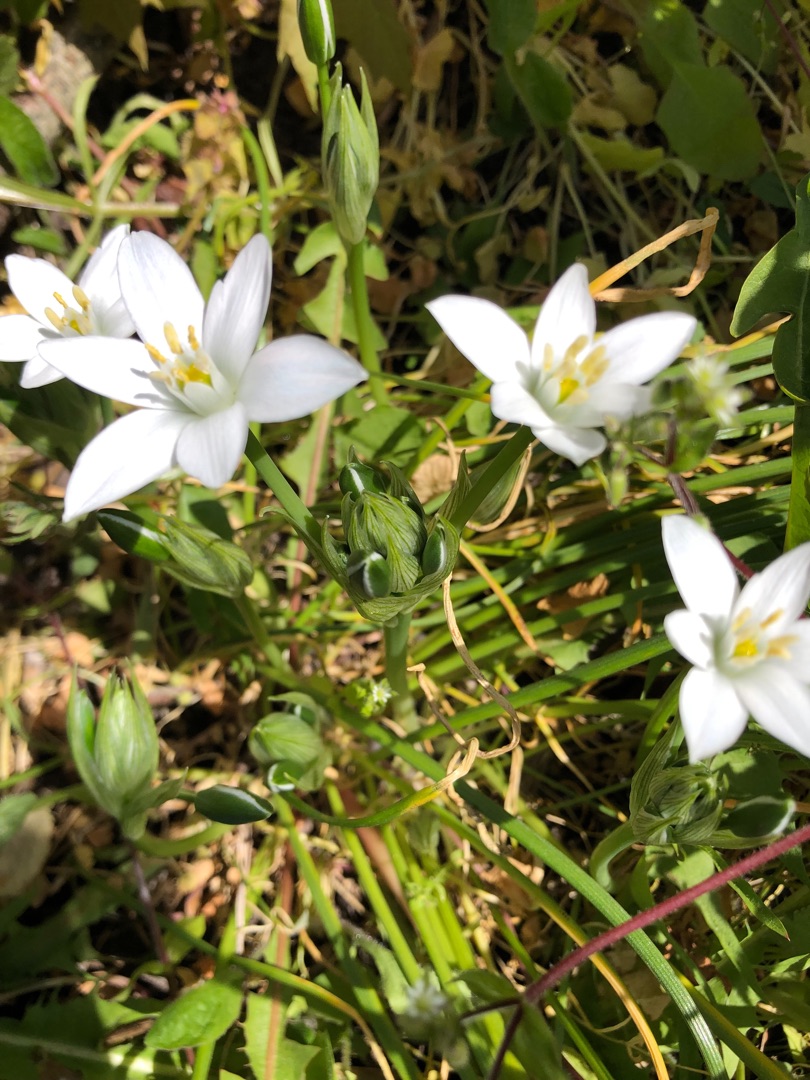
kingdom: Plantae
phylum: Tracheophyta
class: Liliopsida
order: Asparagales
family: Asparagaceae
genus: Ornithogalum
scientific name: Ornithogalum umbellatum
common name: Kost-fuglemælk
